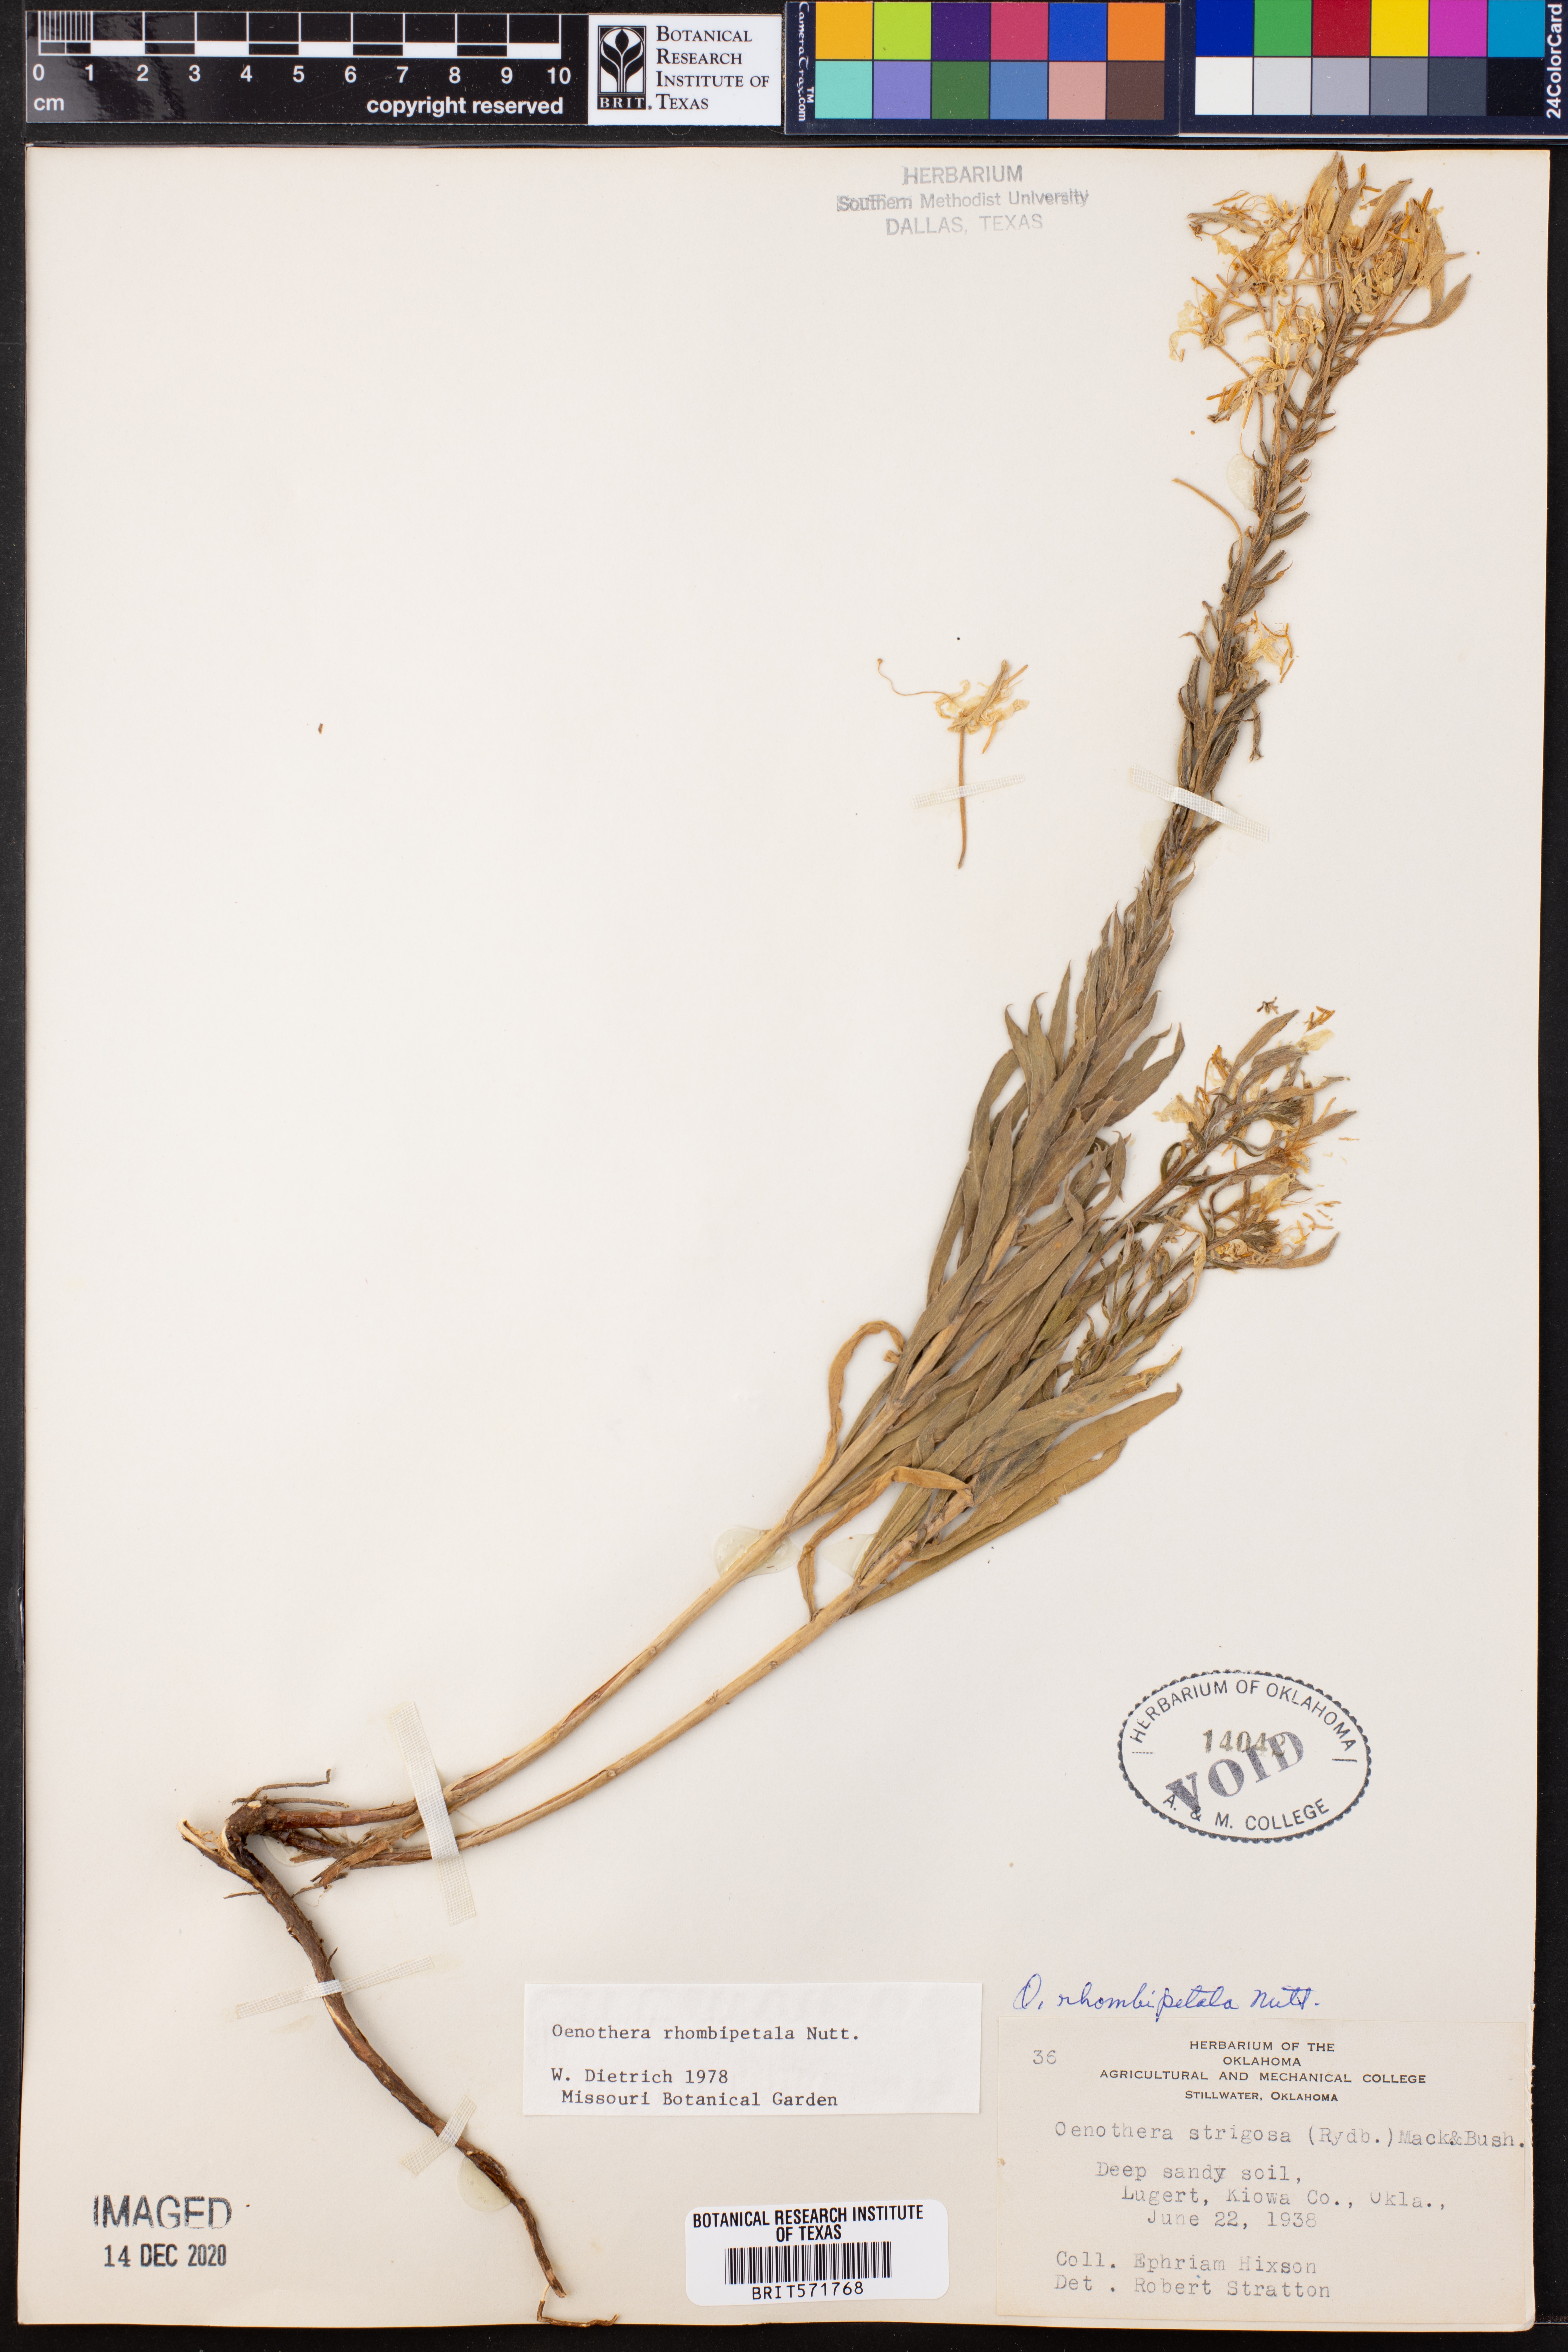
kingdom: Plantae
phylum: Tracheophyta
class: Magnoliopsida
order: Myrtales
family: Onagraceae
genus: Oenothera
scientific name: Oenothera rhombipetala
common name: Four-points evening-primrose
